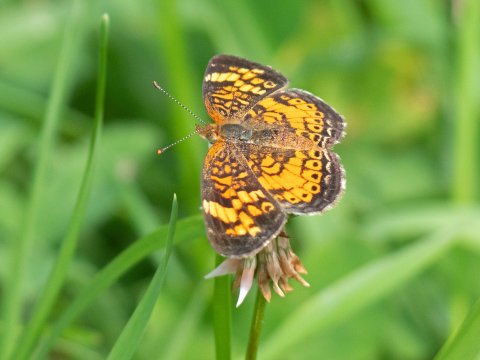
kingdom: Animalia
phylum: Arthropoda
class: Insecta
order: Lepidoptera
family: Nymphalidae
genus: Phyciodes
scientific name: Phyciodes
